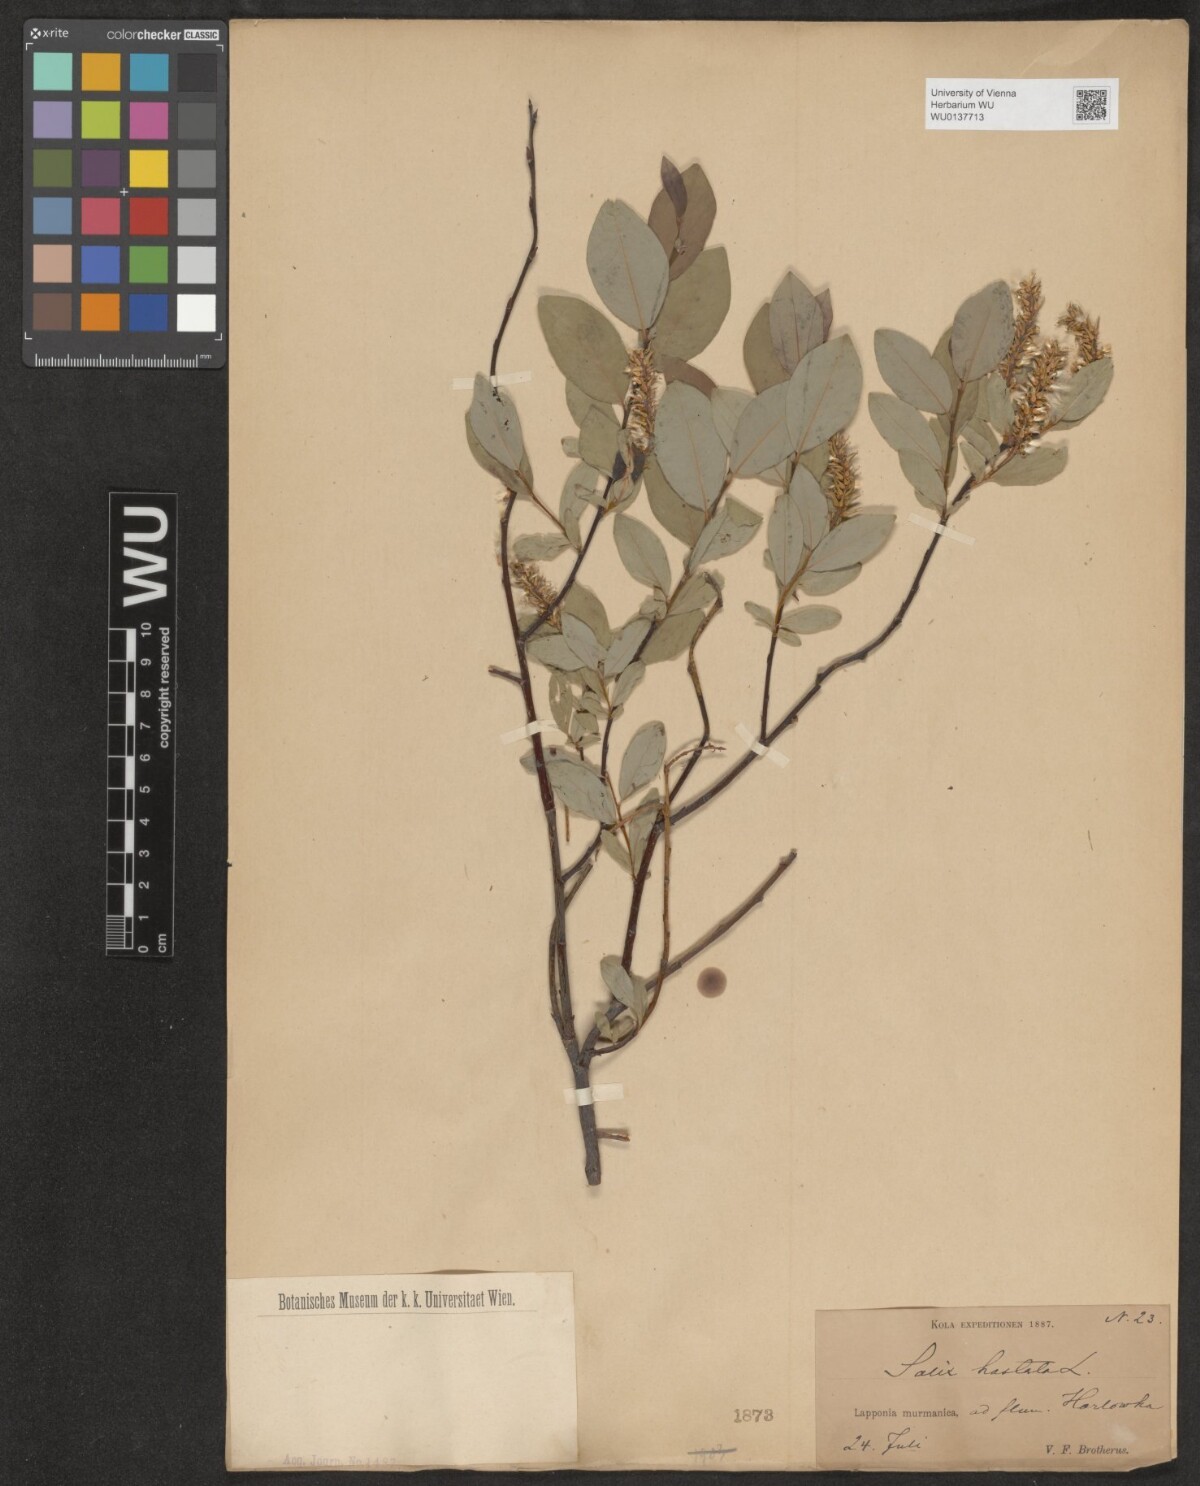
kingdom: Plantae
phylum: Tracheophyta
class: Magnoliopsida
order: Malpighiales
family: Salicaceae
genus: Salix
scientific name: Salix hastata
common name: Halberd willow
